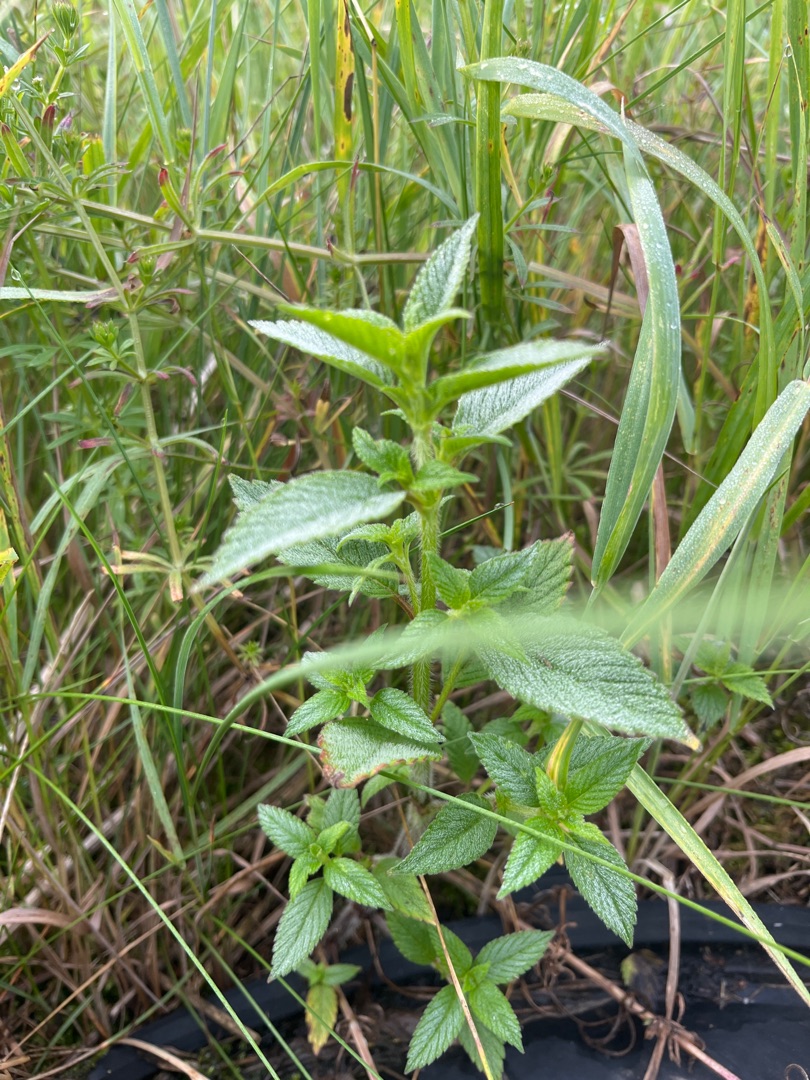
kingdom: Plantae
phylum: Tracheophyta
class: Magnoliopsida
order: Lamiales
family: Lamiaceae
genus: Galeopsis
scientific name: Galeopsis
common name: Hanekroslægten
